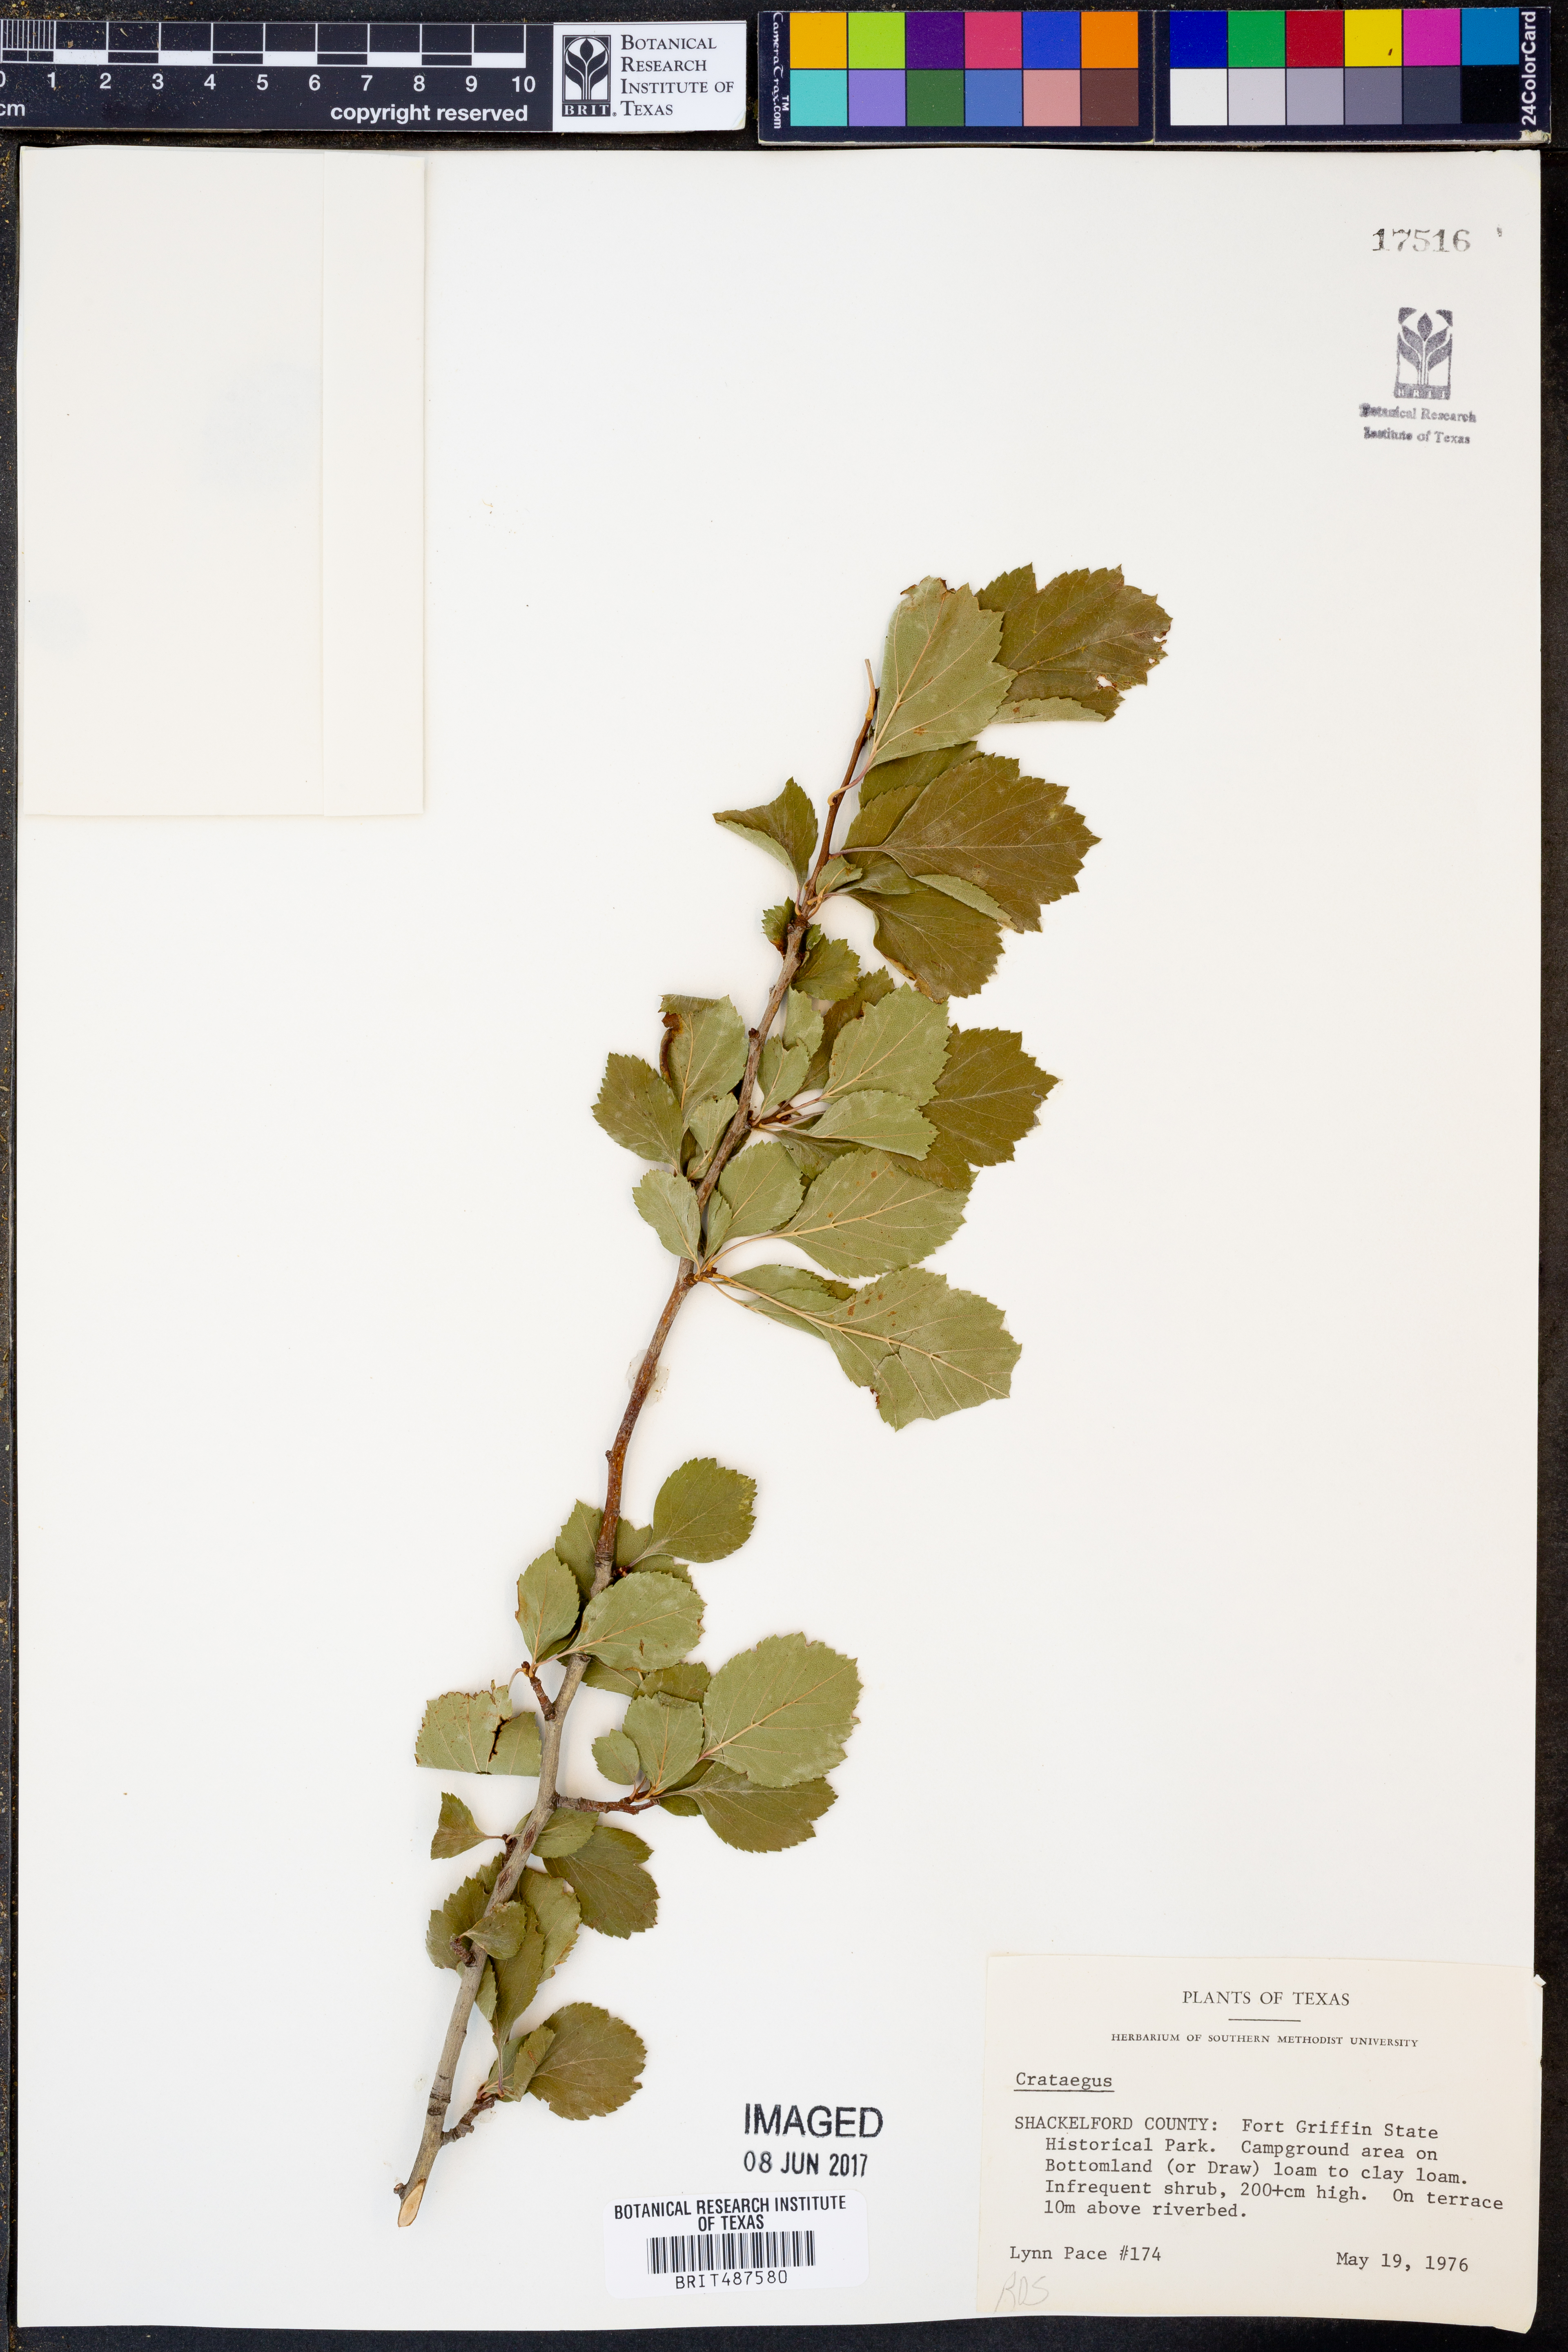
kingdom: Plantae
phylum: Tracheophyta
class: Magnoliopsida
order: Rosales
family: Rosaceae
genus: Crataegus
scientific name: Crataegus
